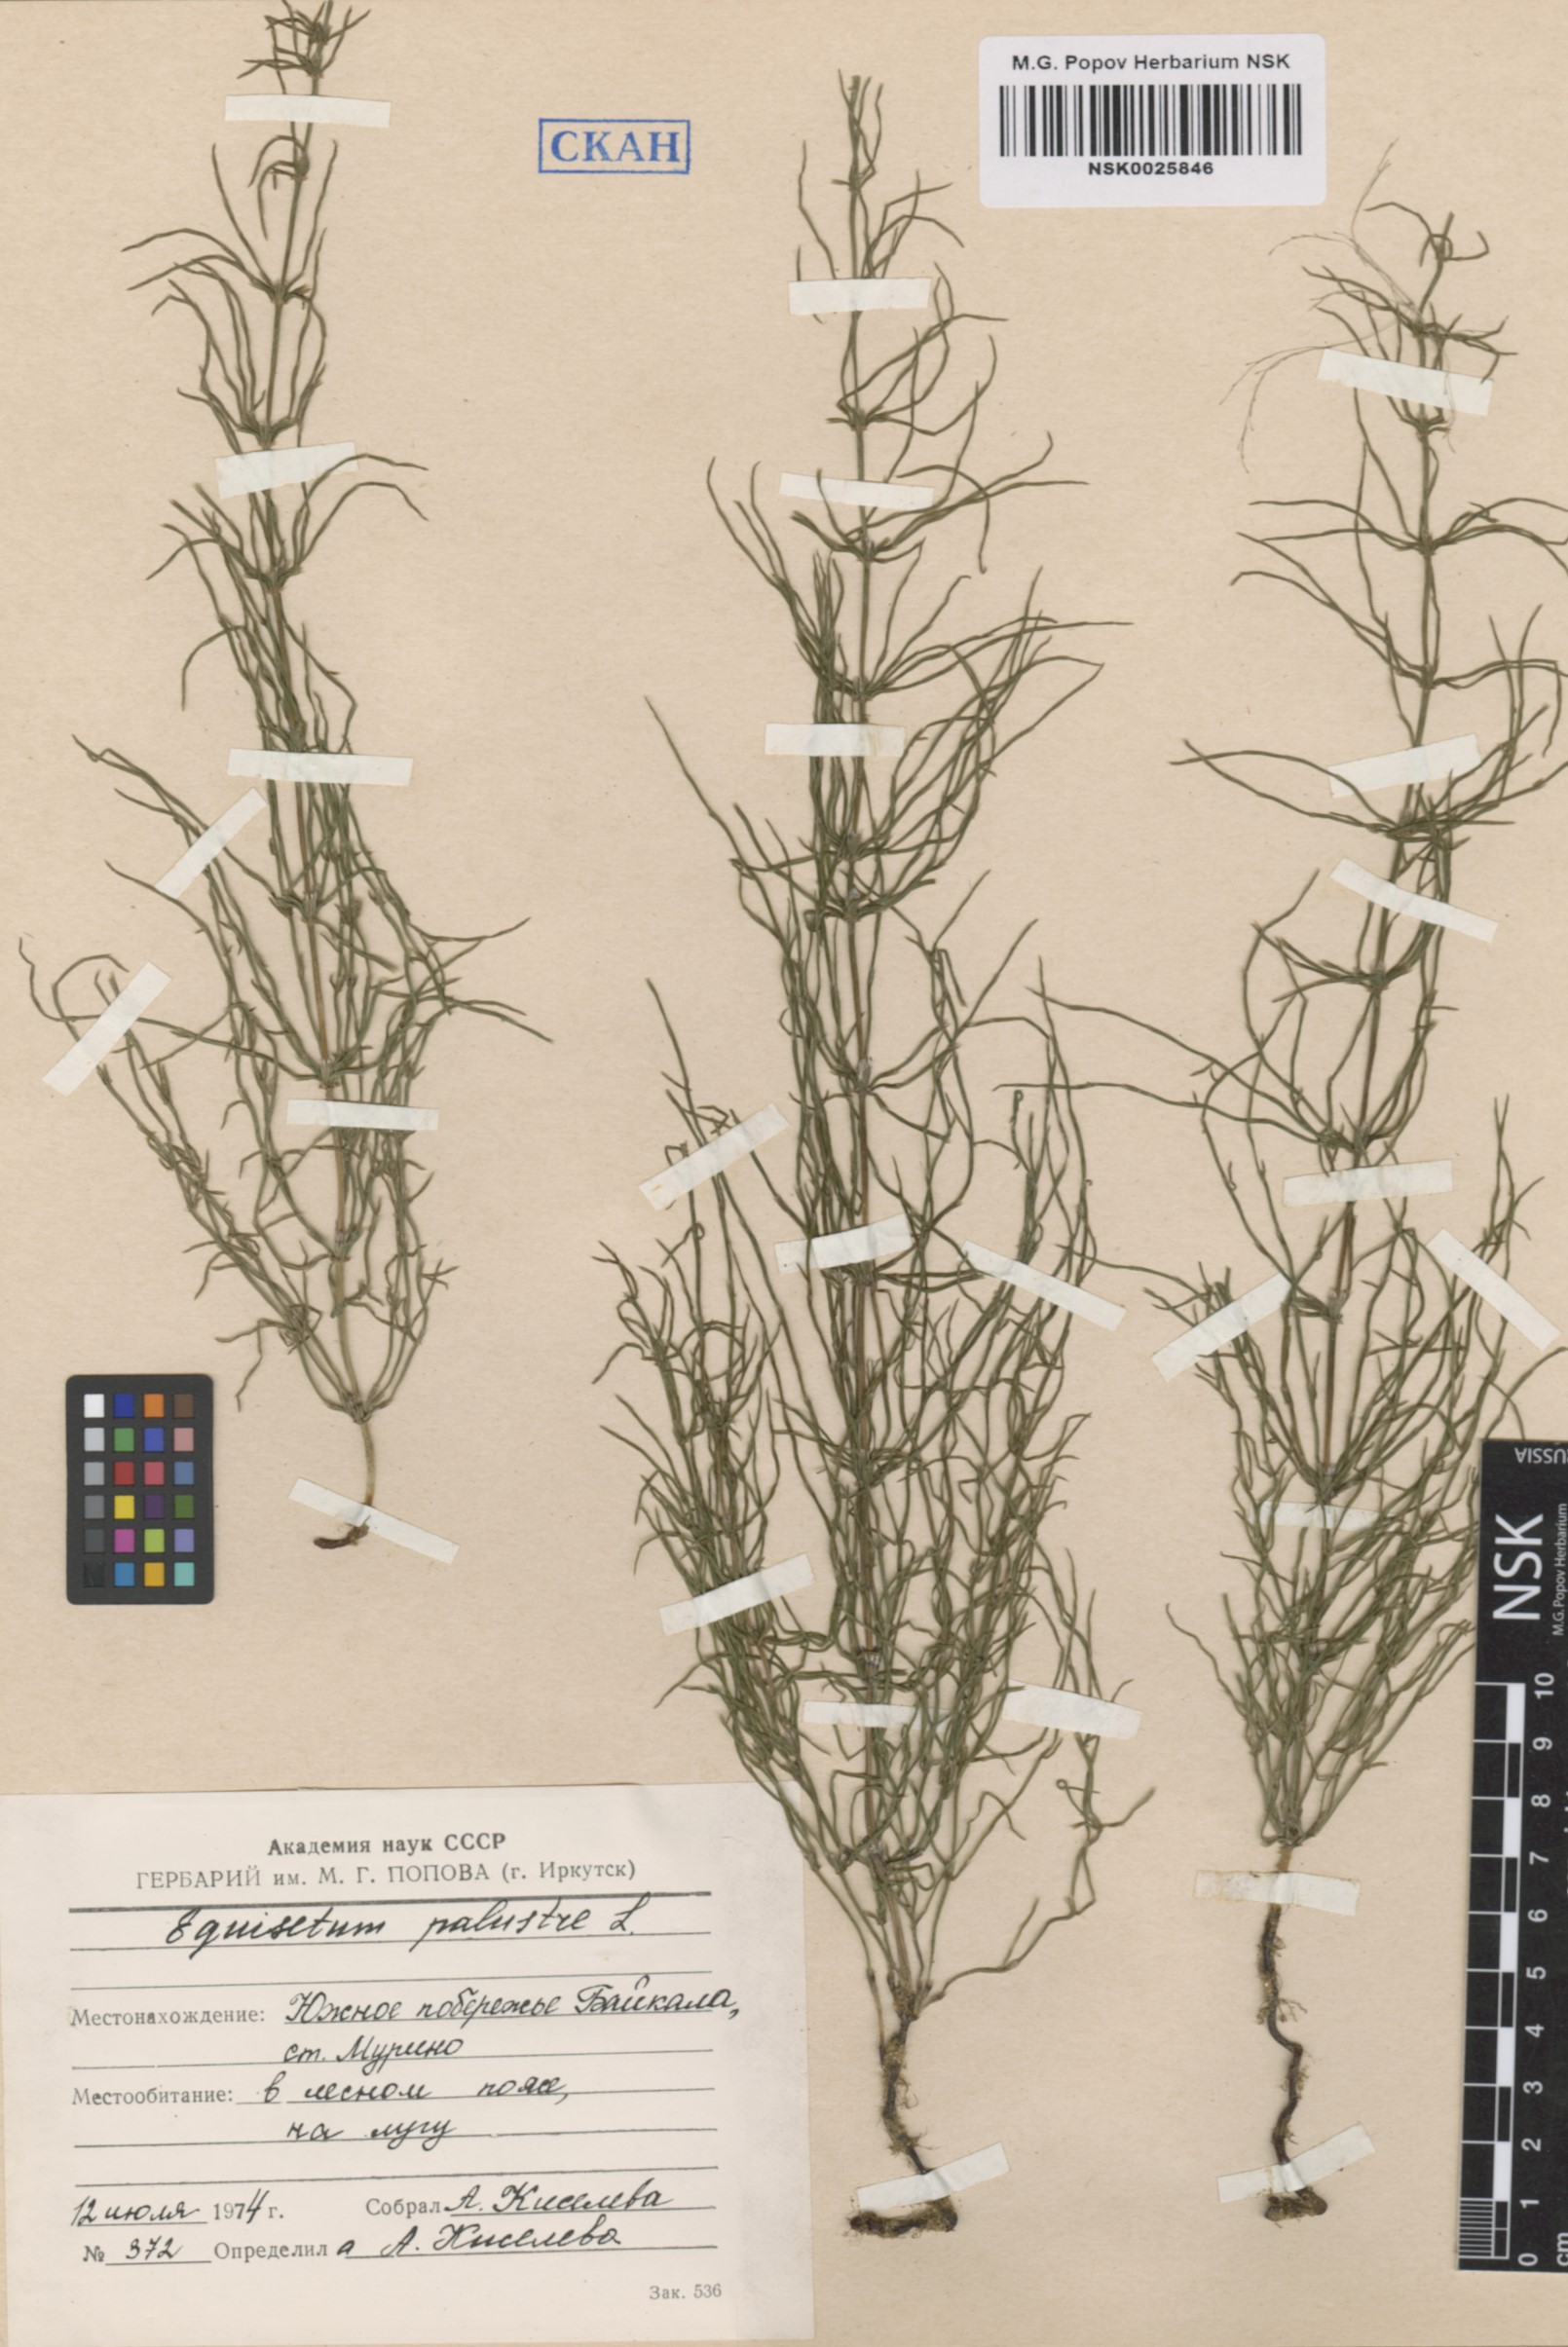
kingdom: Plantae
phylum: Tracheophyta
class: Polypodiopsida
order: Equisetales
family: Equisetaceae
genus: Equisetum
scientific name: Equisetum palustre
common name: Marsh horsetail
